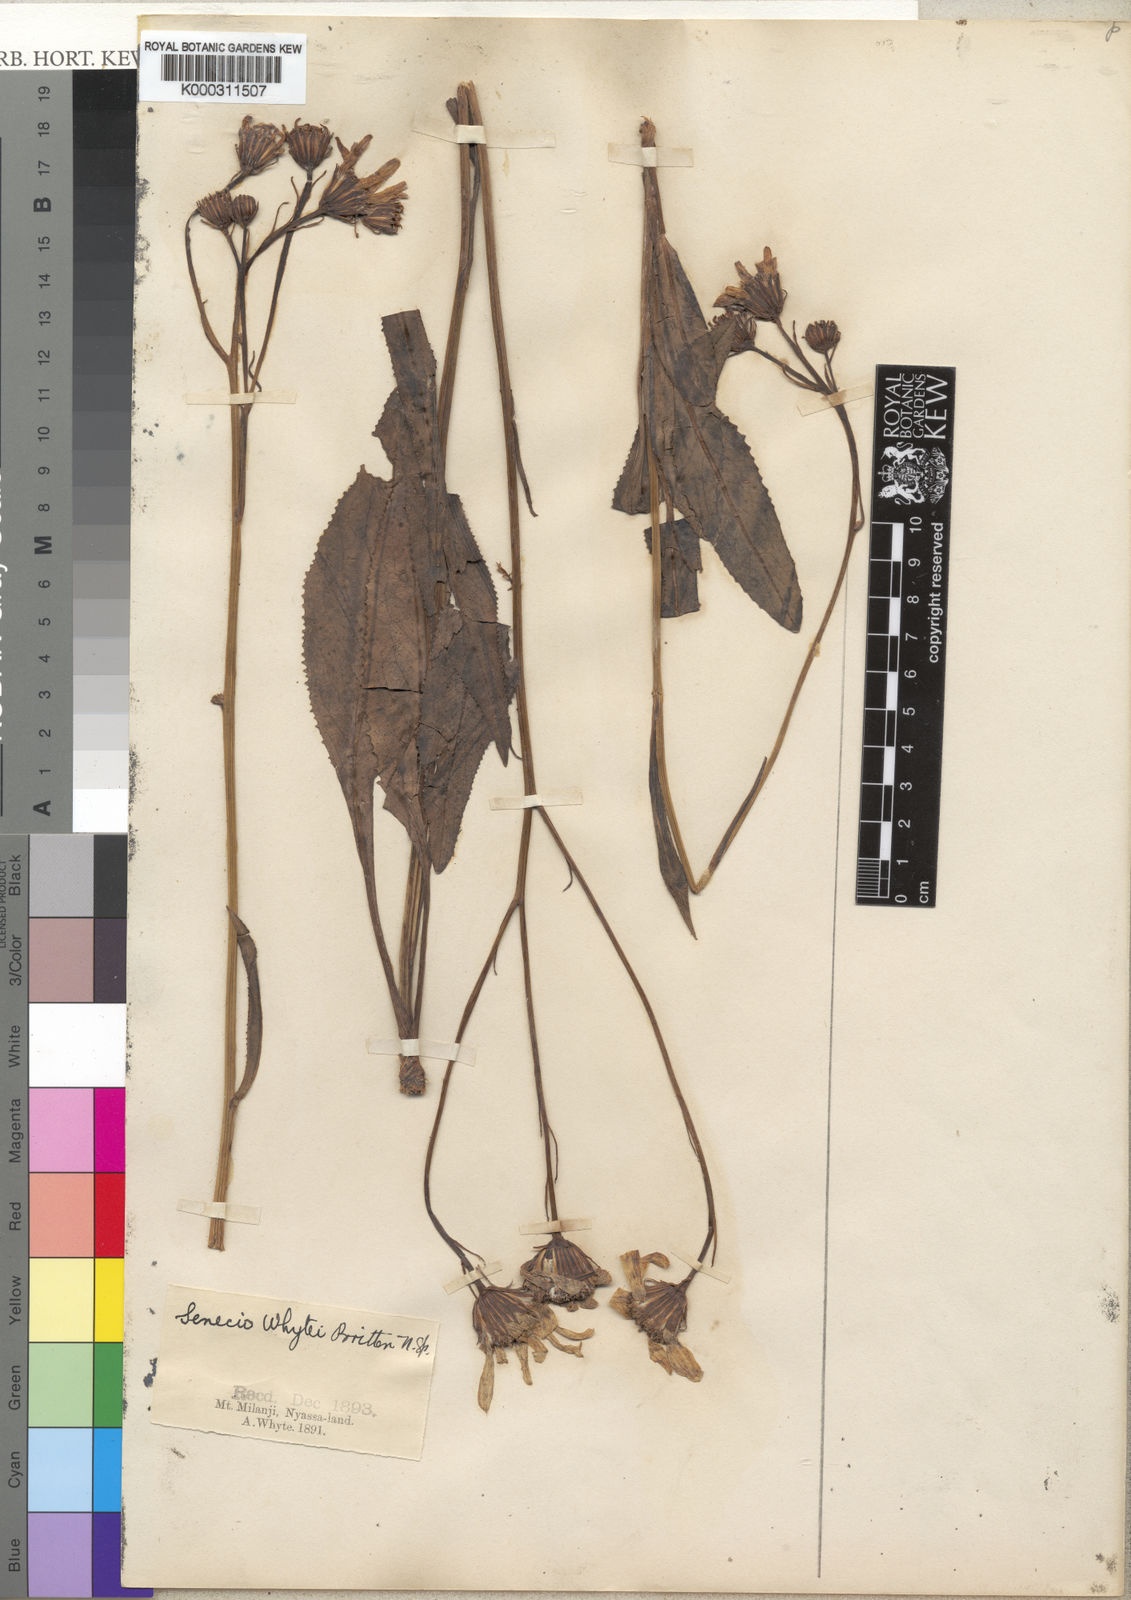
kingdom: Plantae
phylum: Tracheophyta
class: Magnoliopsida
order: Asterales
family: Asteraceae
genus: Senecio
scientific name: Senecio kacondensis
